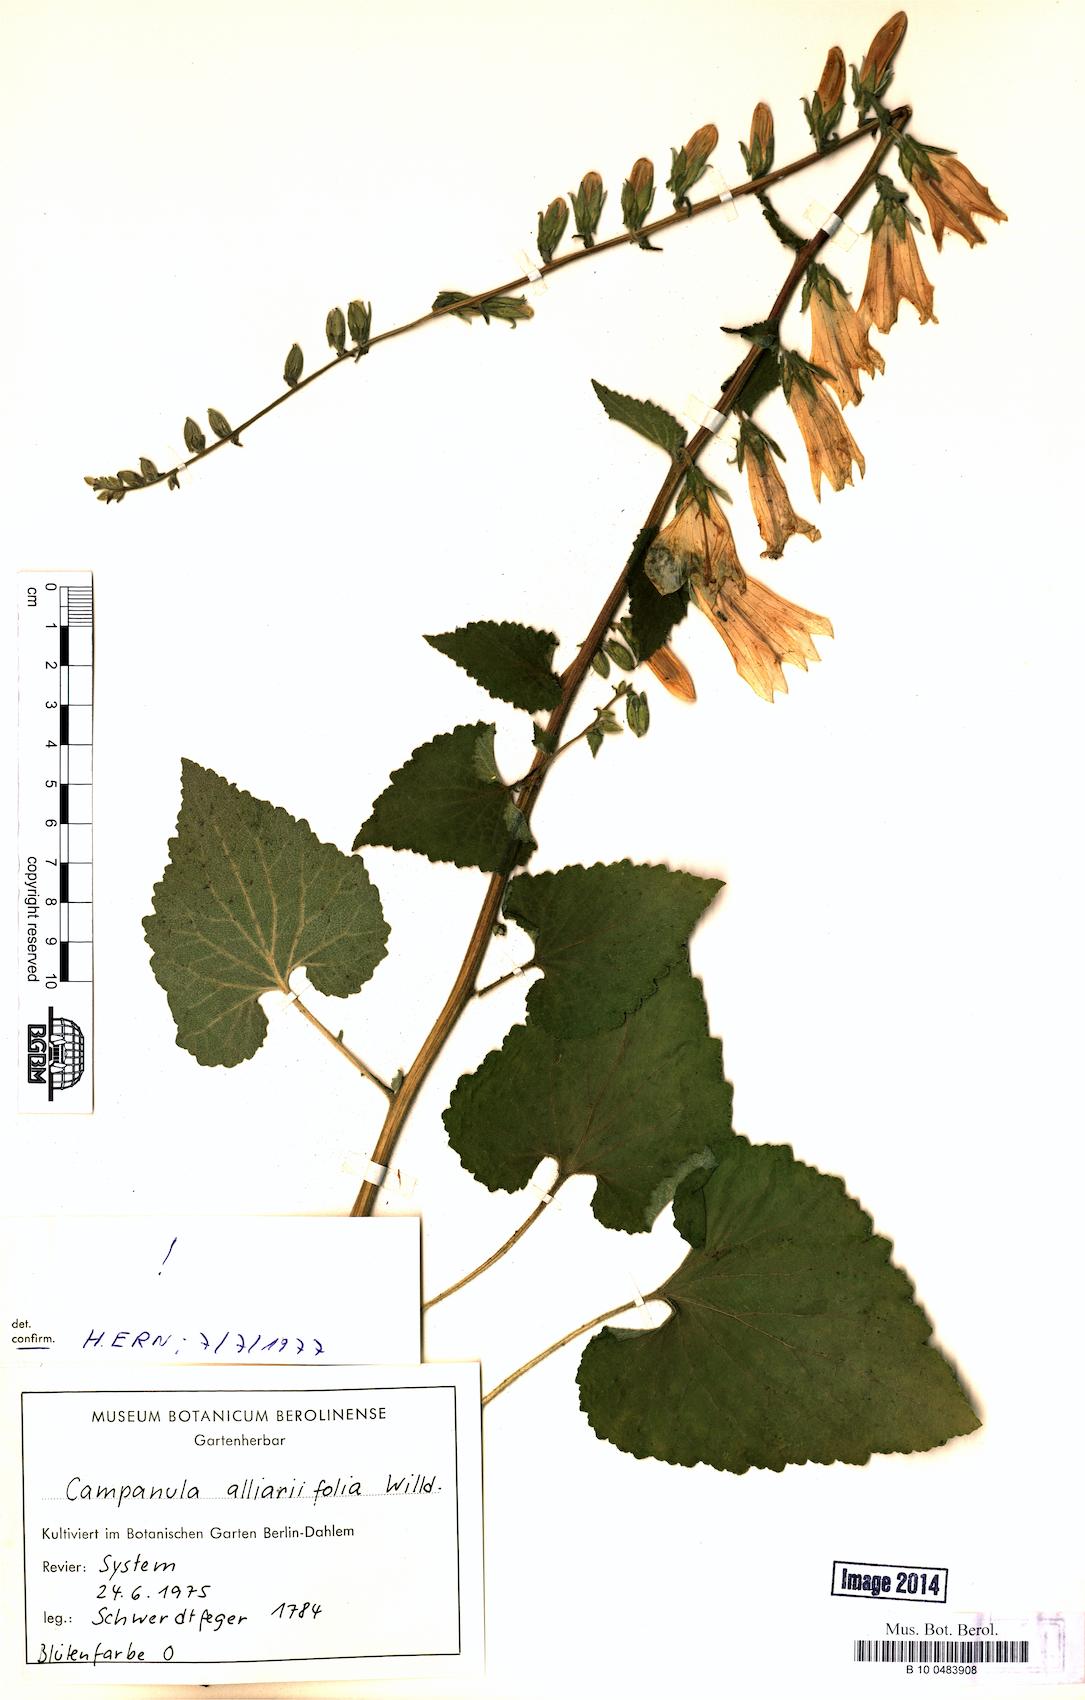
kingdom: Plantae
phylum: Tracheophyta
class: Magnoliopsida
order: Asterales
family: Campanulaceae
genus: Campanula
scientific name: Campanula alliariifolia
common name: Cornish bellflower
